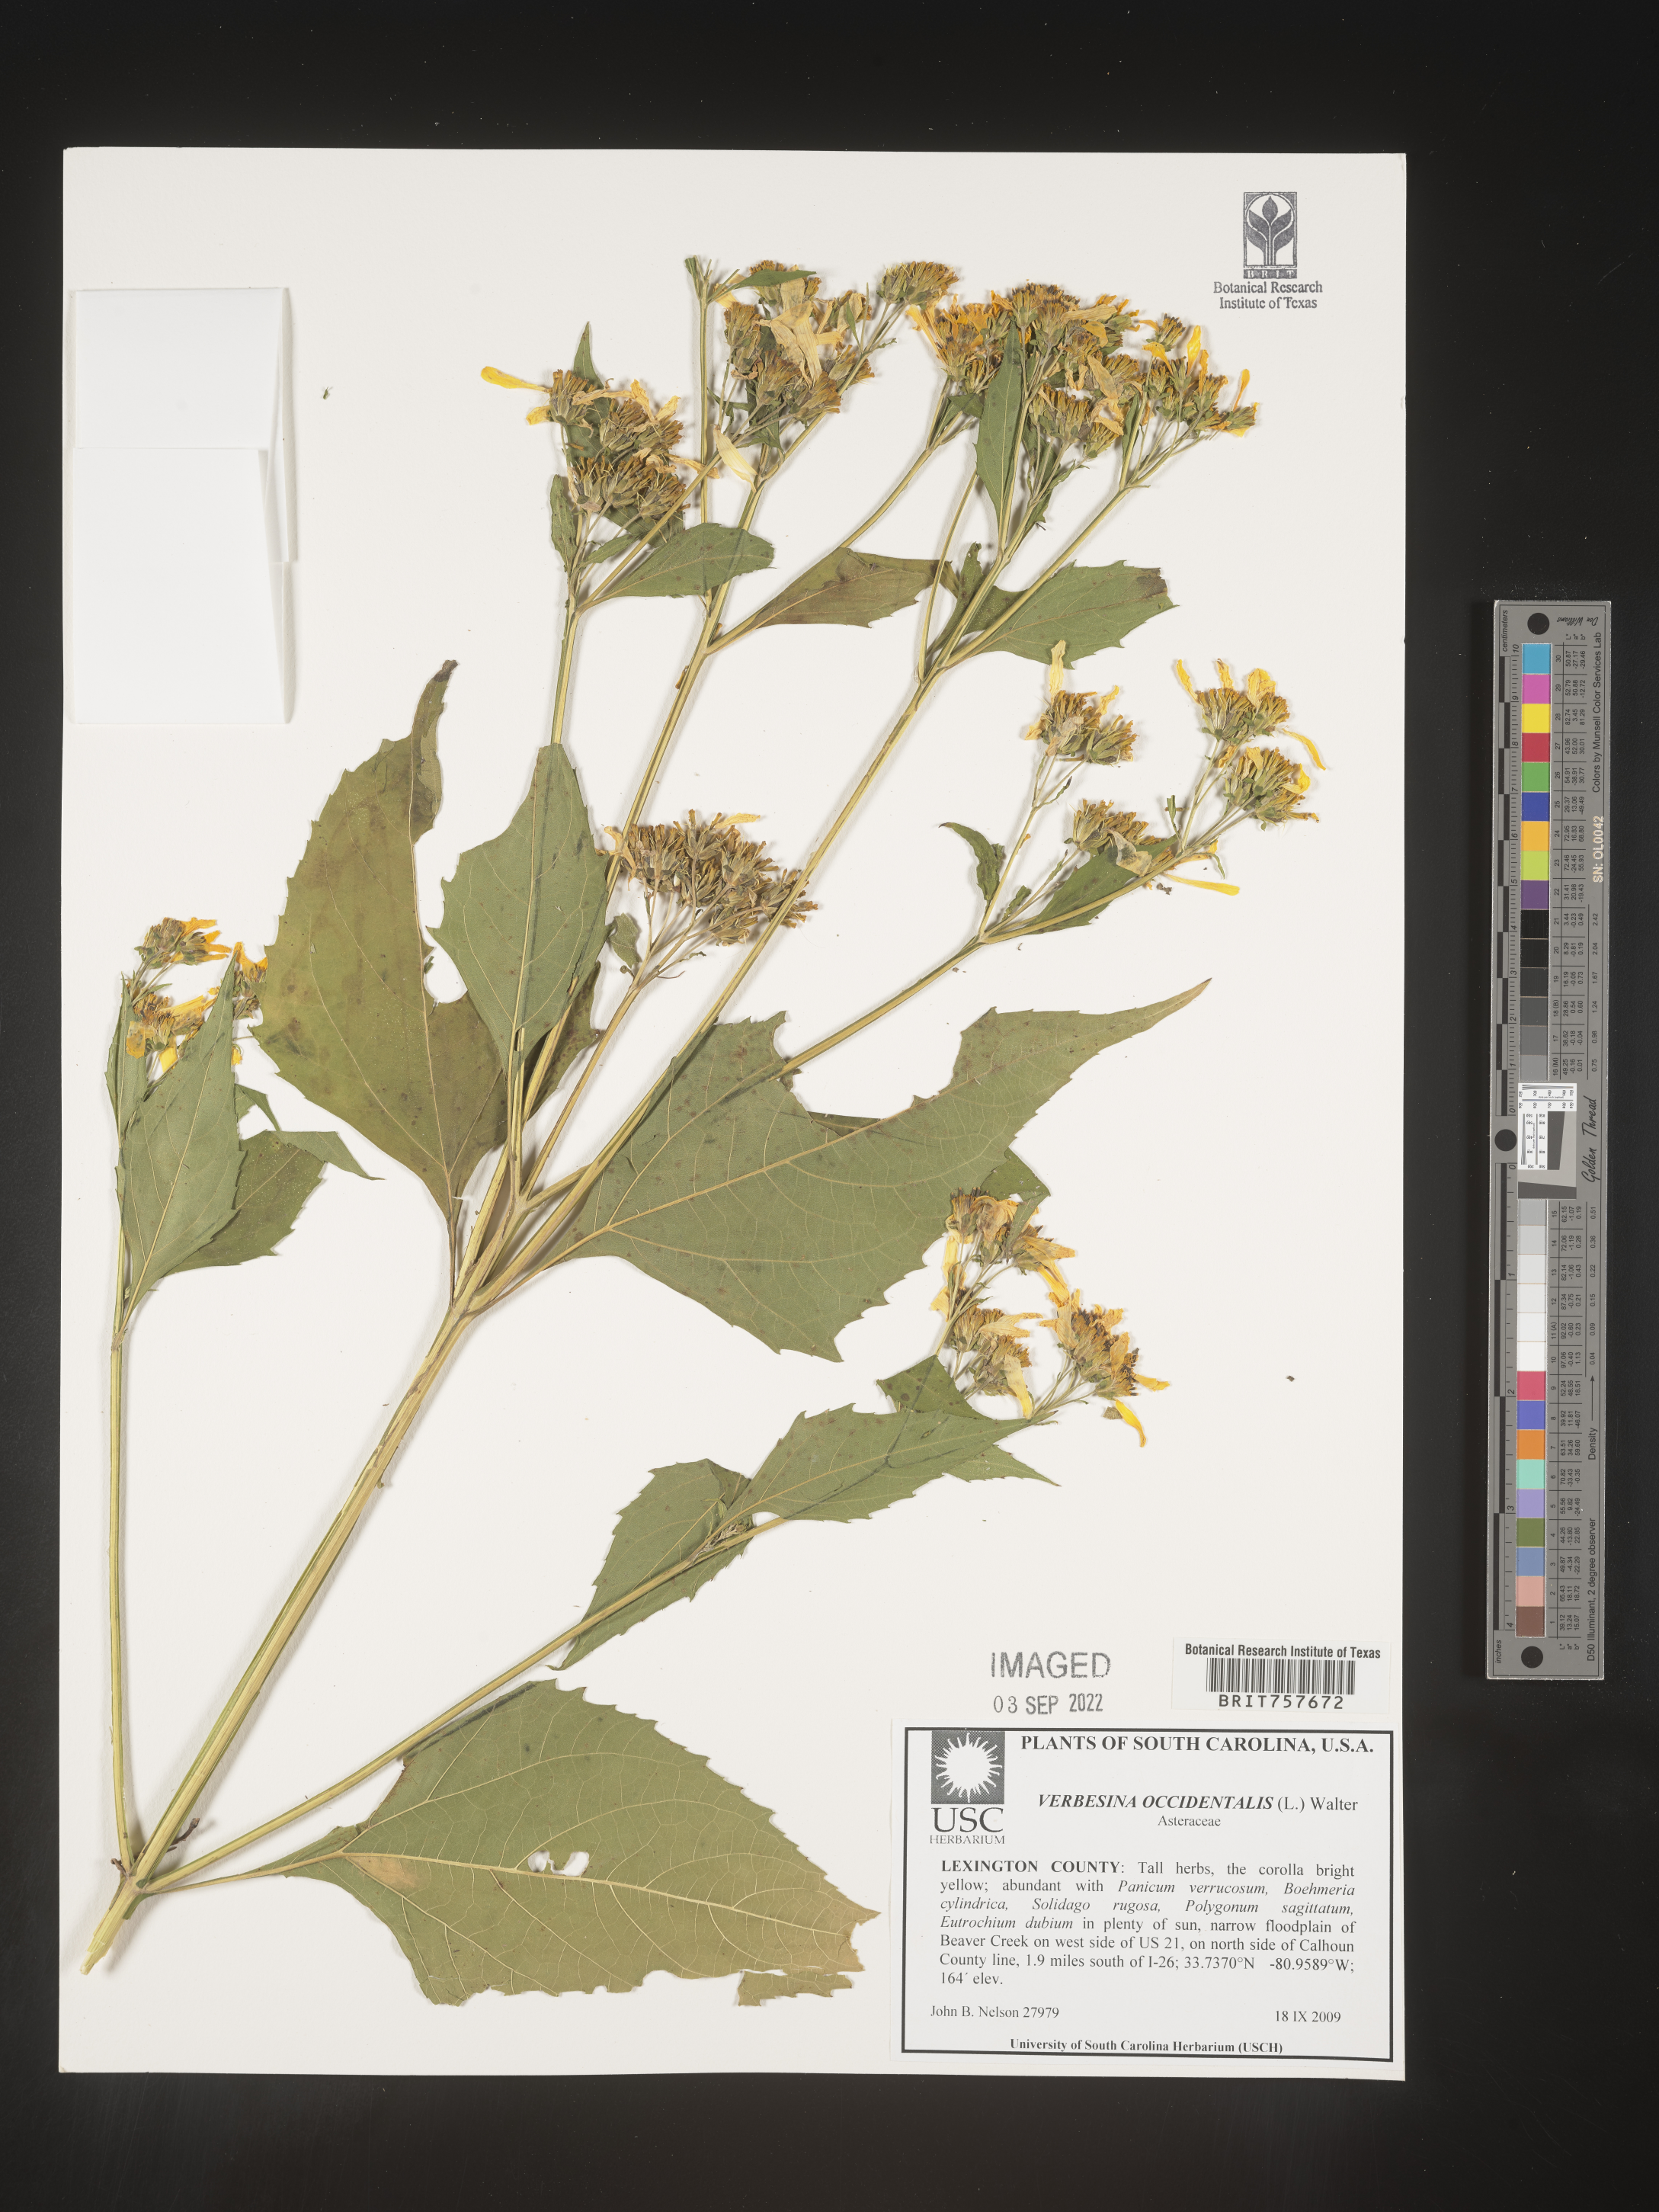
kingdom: Plantae
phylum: Tracheophyta
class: Magnoliopsida
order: Asterales
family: Asteraceae
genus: Verbesina
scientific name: Verbesina occidentalis
